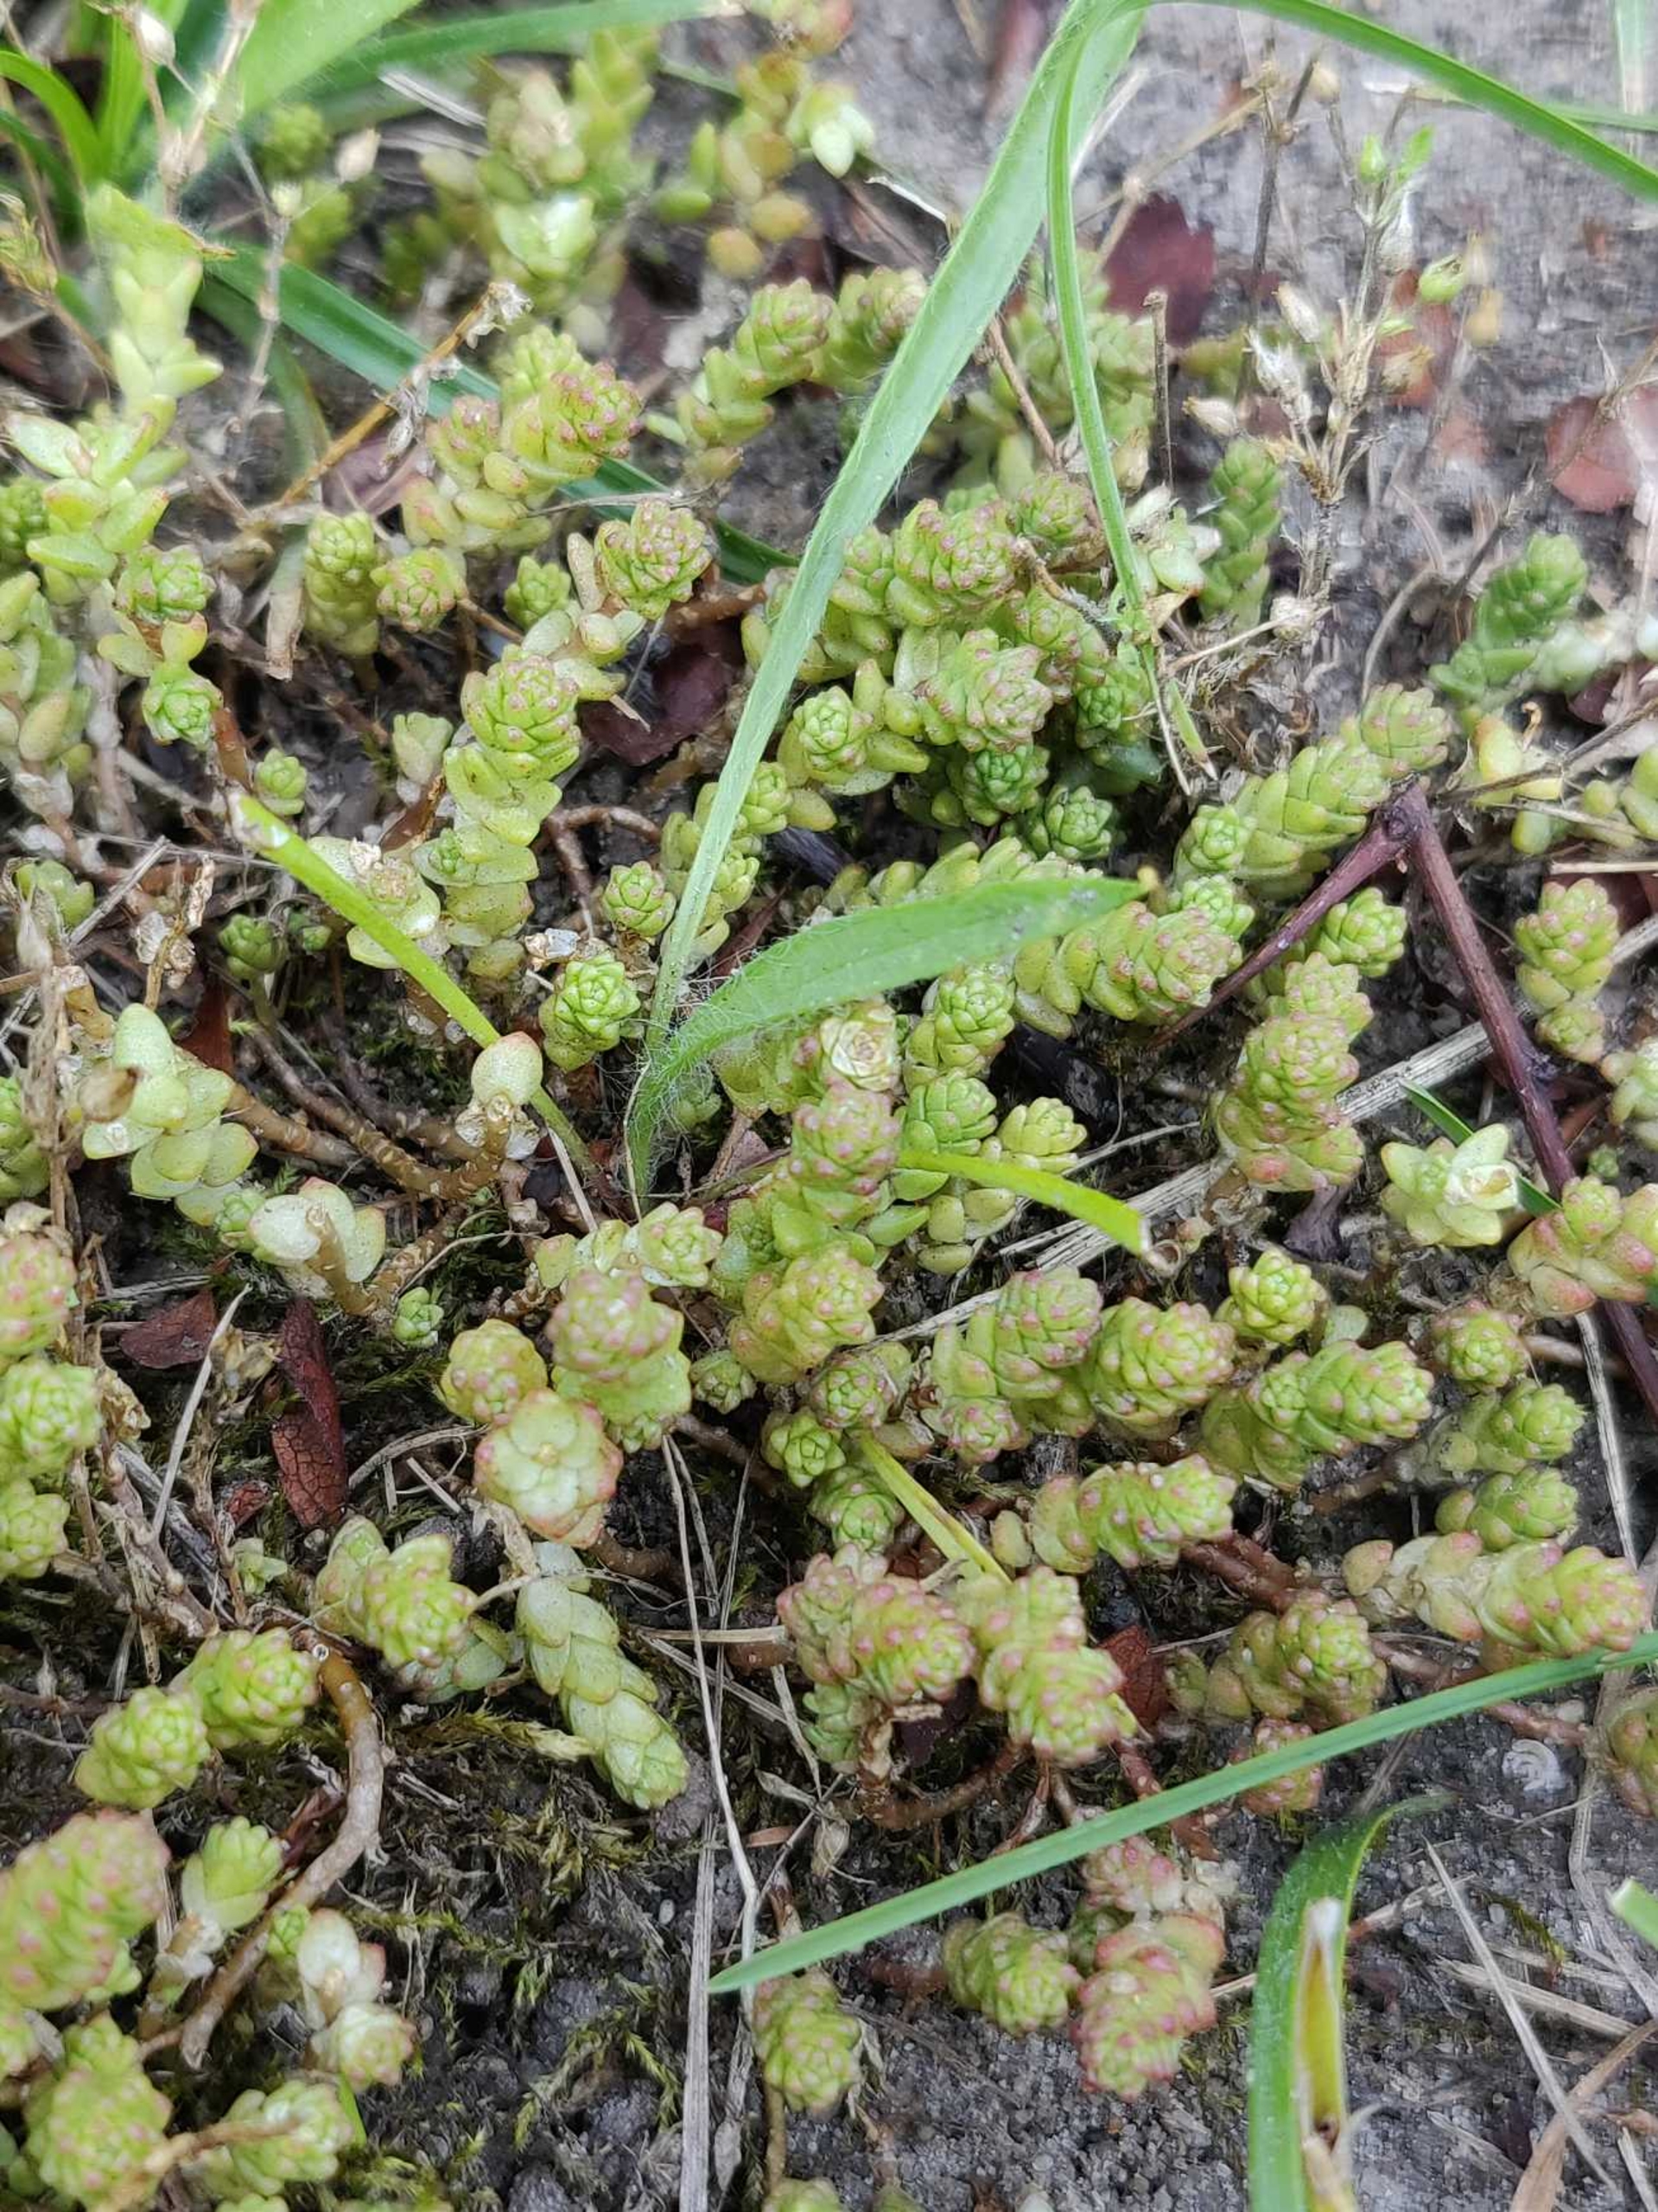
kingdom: Plantae
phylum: Tracheophyta
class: Magnoliopsida
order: Saxifragales
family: Crassulaceae
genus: Sedum
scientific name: Sedum acre
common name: Bidende stenurt
